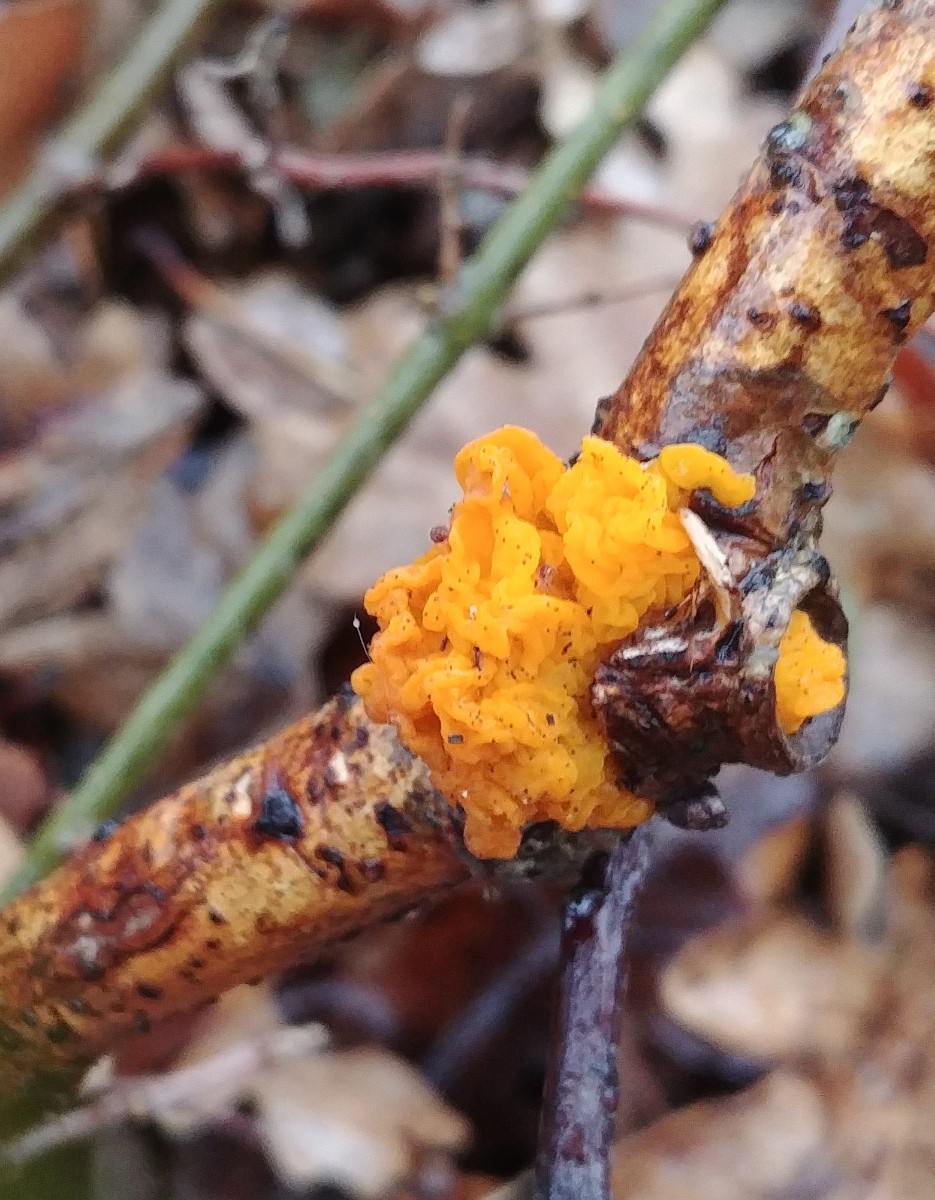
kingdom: Fungi
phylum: Basidiomycota
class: Tremellomycetes
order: Tremellales
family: Tremellaceae
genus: Tremella
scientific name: Tremella mesenterica
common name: gul bævresvamp
